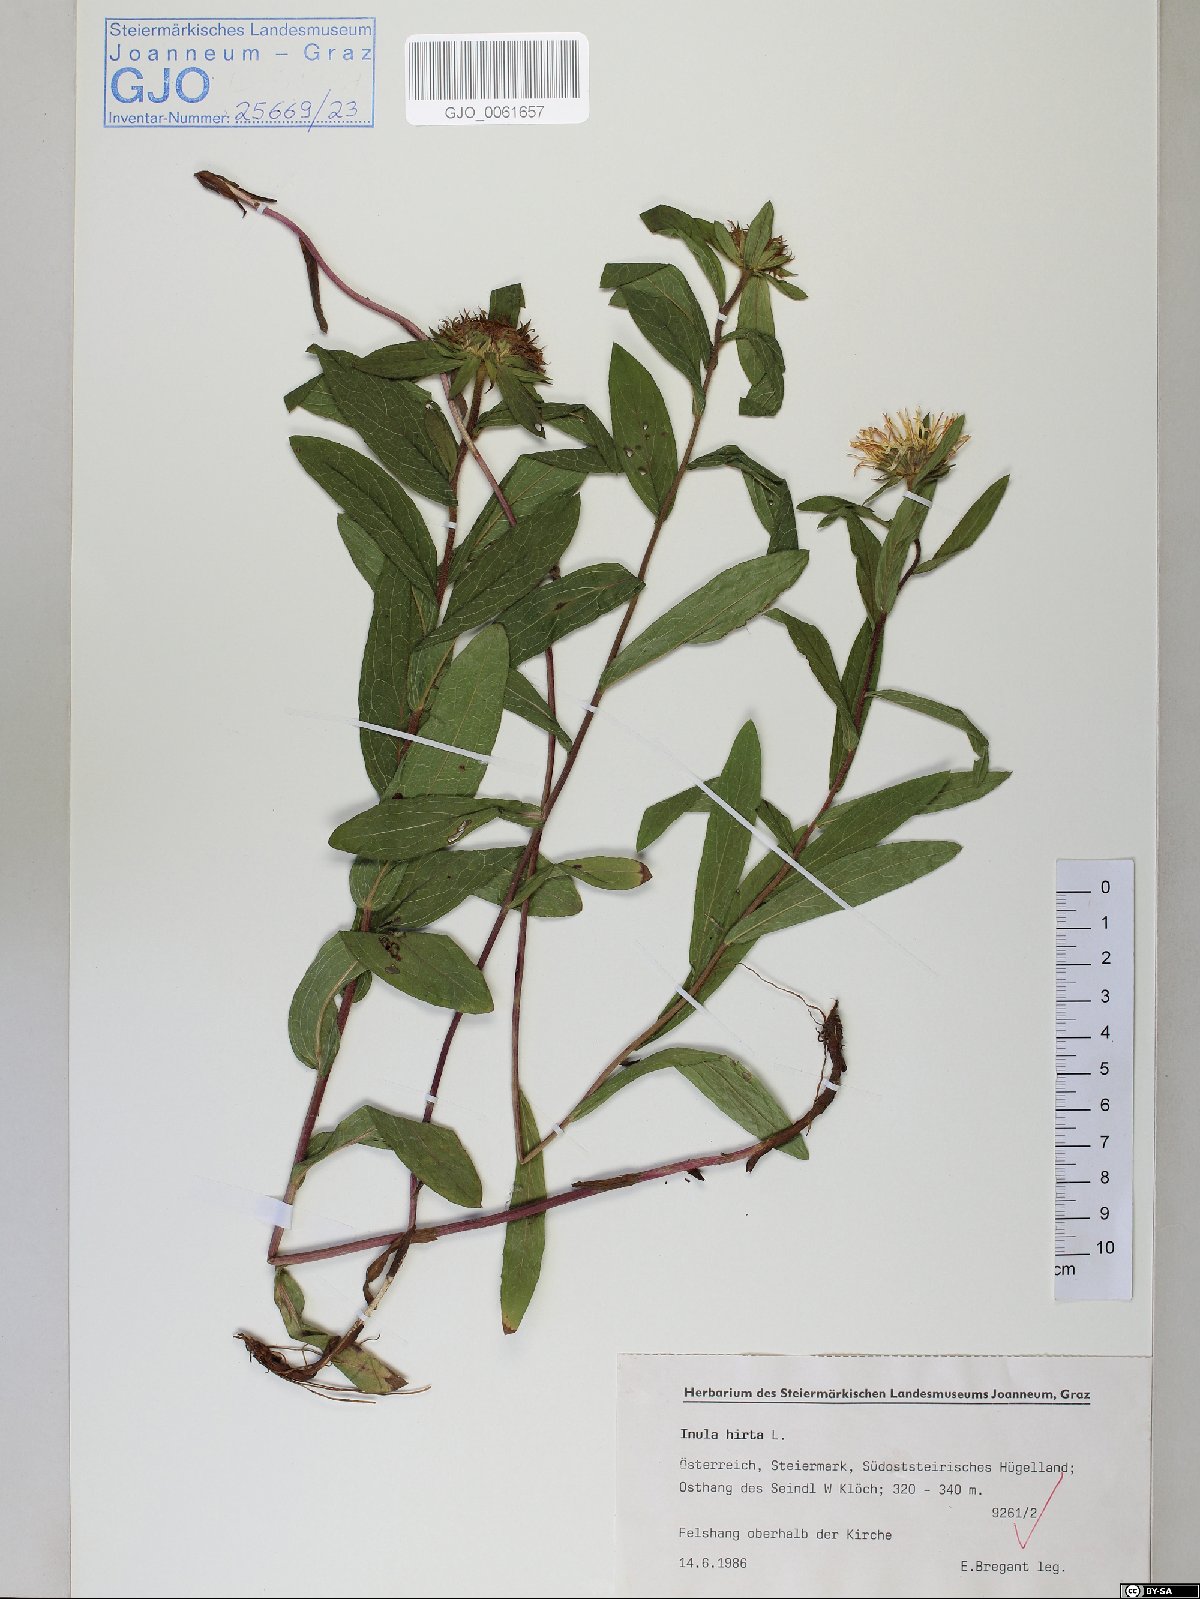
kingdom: Plantae
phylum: Tracheophyta
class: Magnoliopsida
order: Asterales
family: Asteraceae
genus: Pentanema
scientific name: Pentanema hirtum
